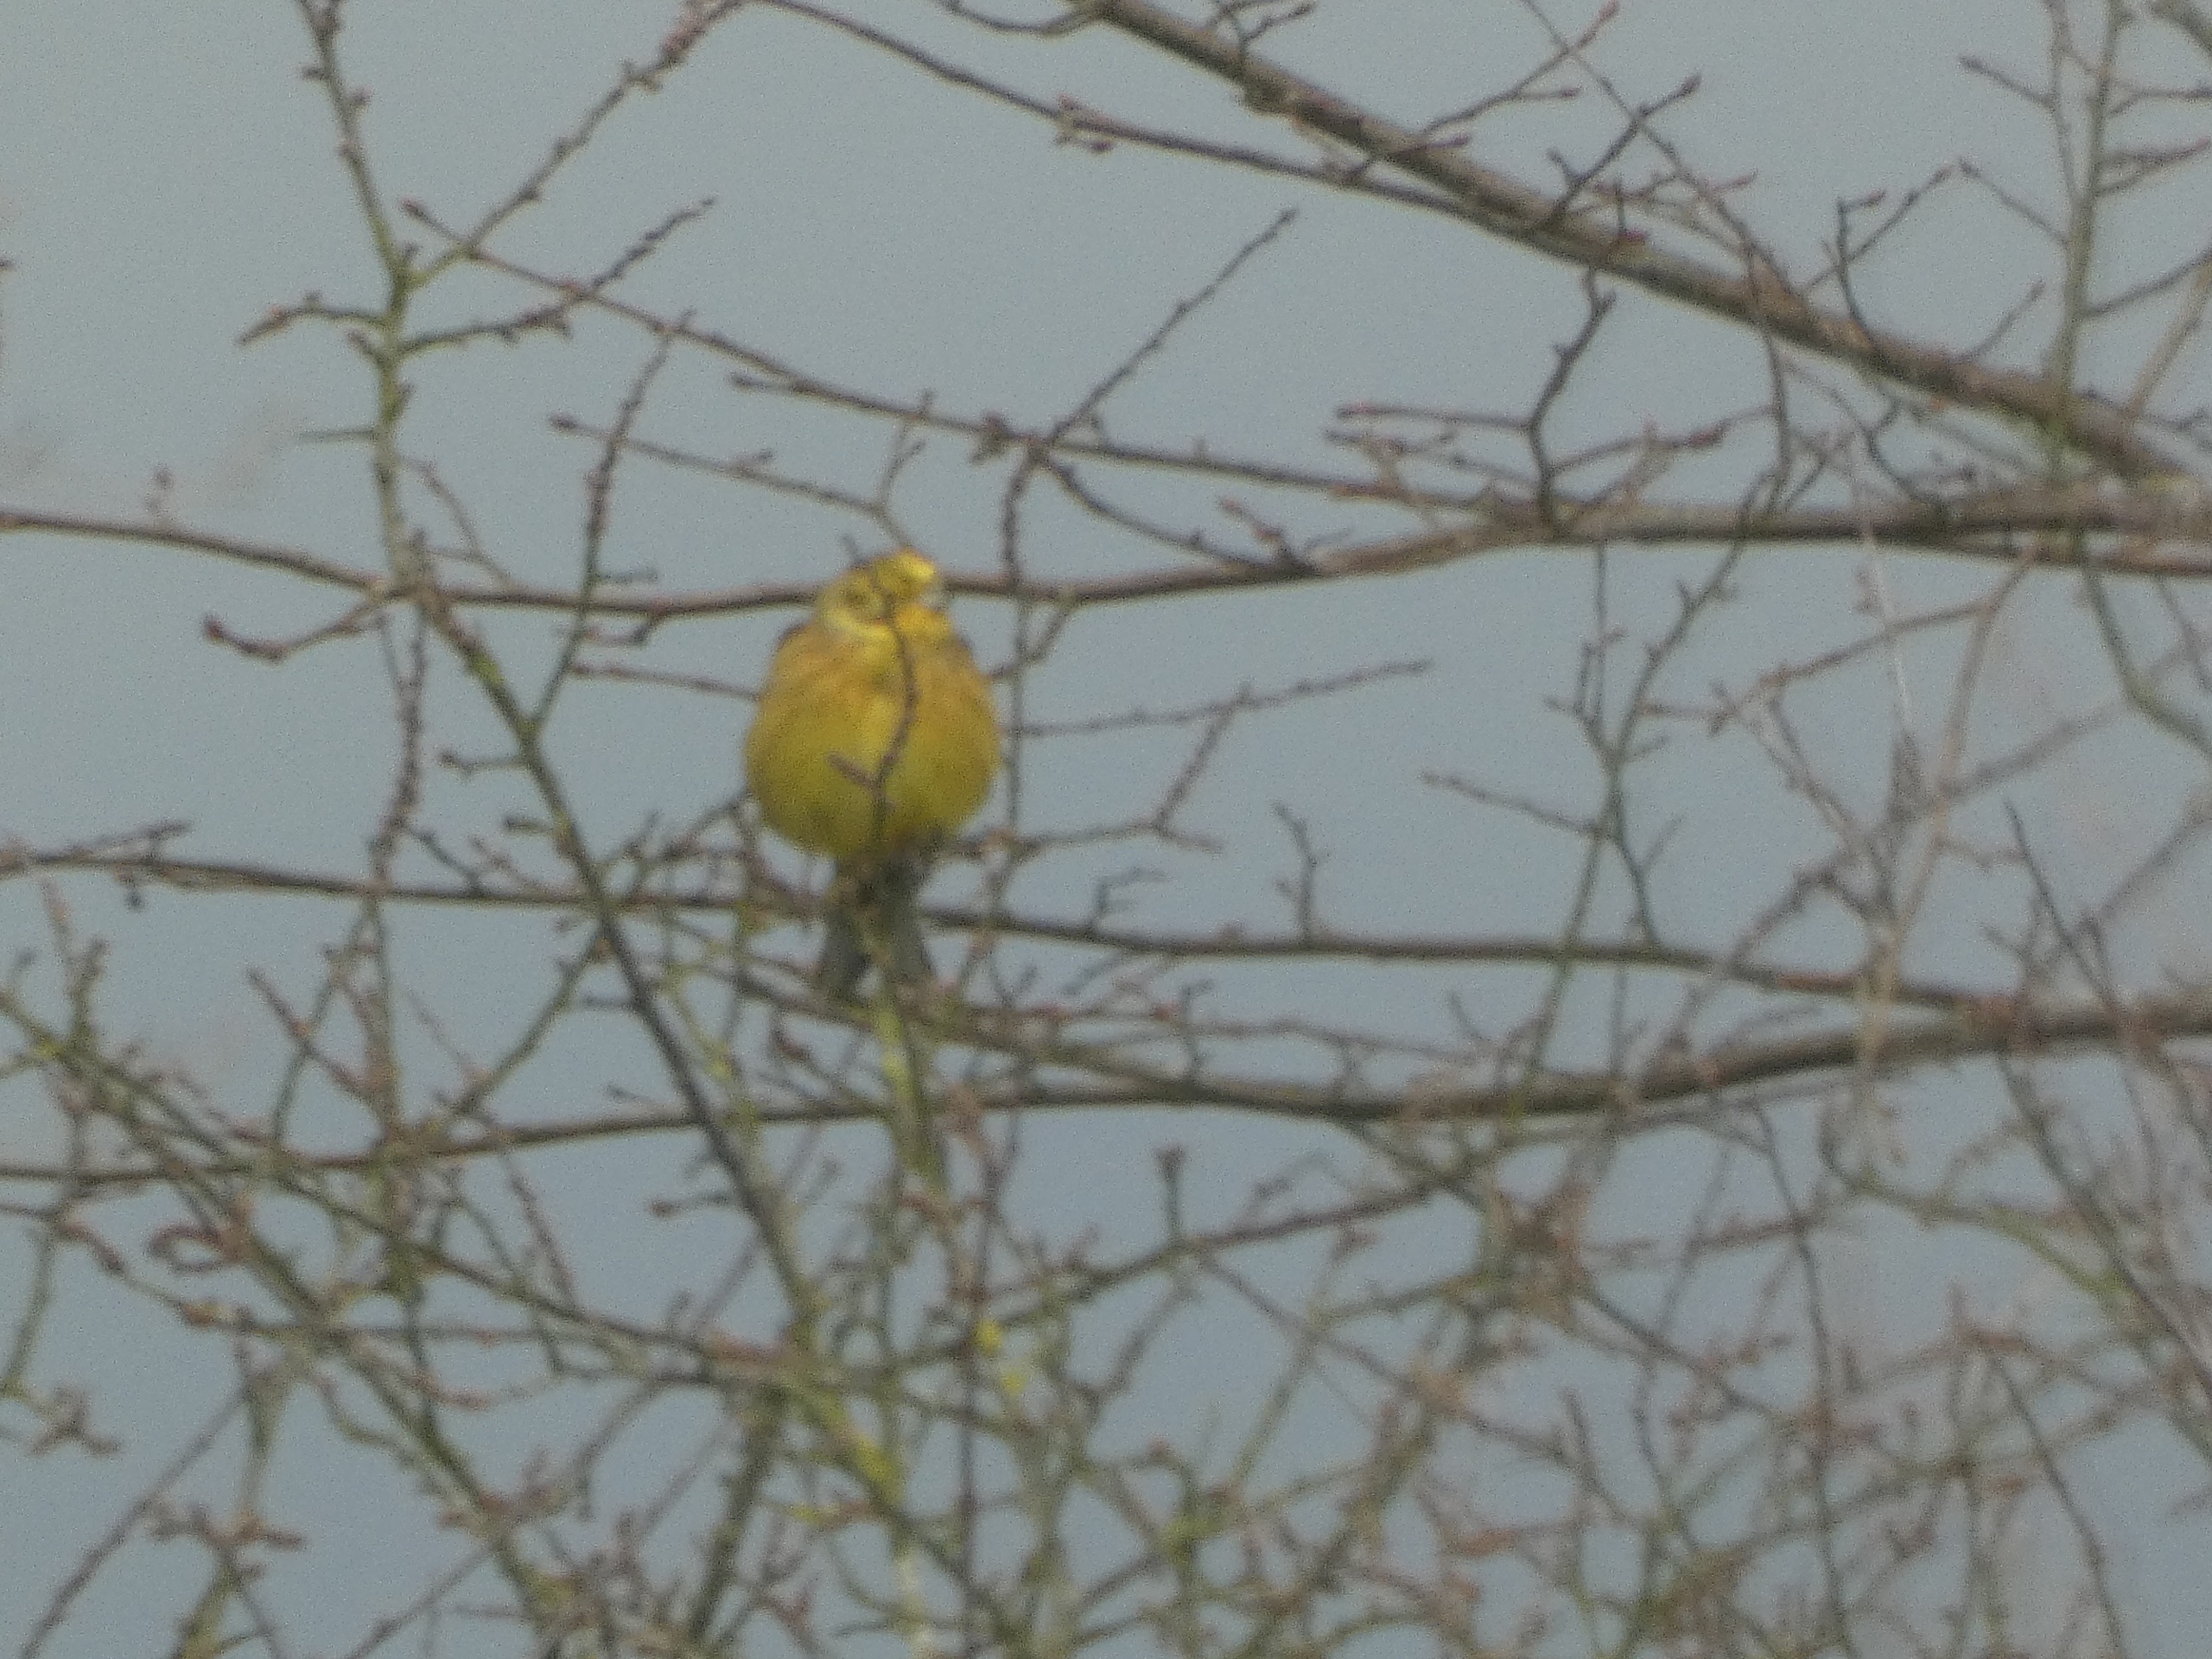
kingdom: Animalia
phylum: Chordata
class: Aves
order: Passeriformes
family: Emberizidae
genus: Emberiza
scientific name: Emberiza citrinella
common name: Gulspurv
